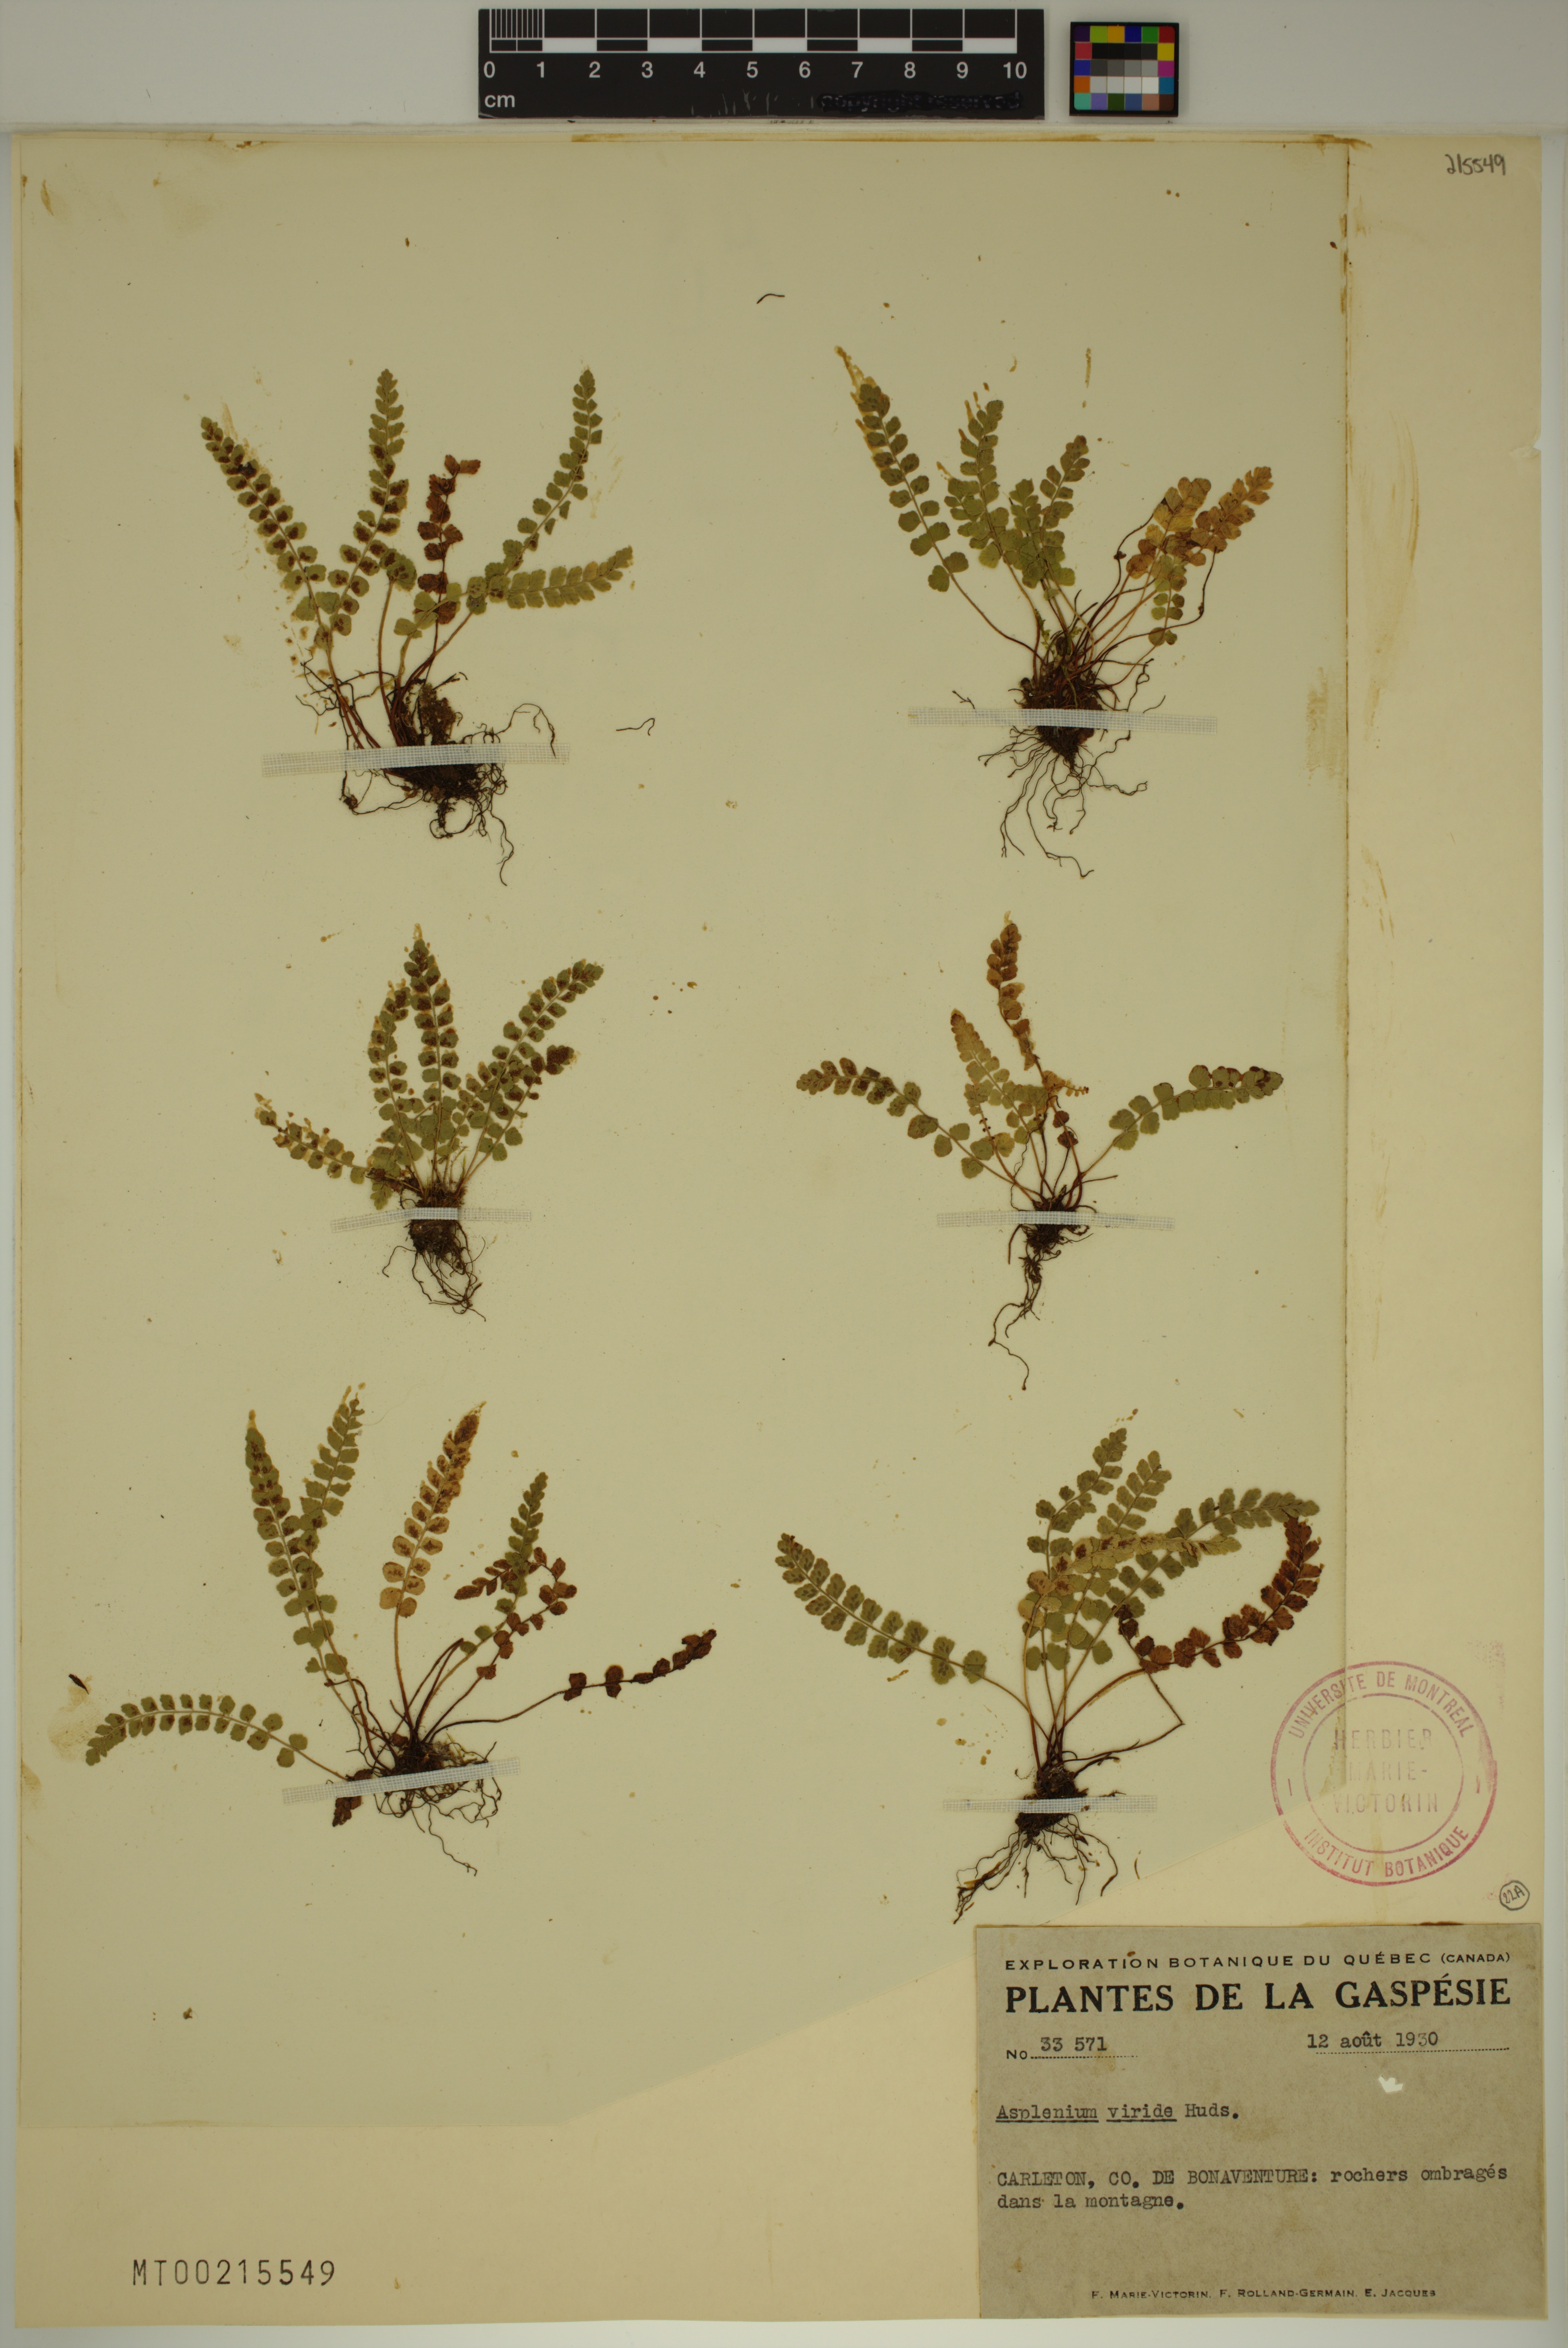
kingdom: Plantae
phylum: Tracheophyta
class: Polypodiopsida
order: Polypodiales
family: Aspleniaceae
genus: Asplenium
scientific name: Asplenium viride
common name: Green spleenwort
